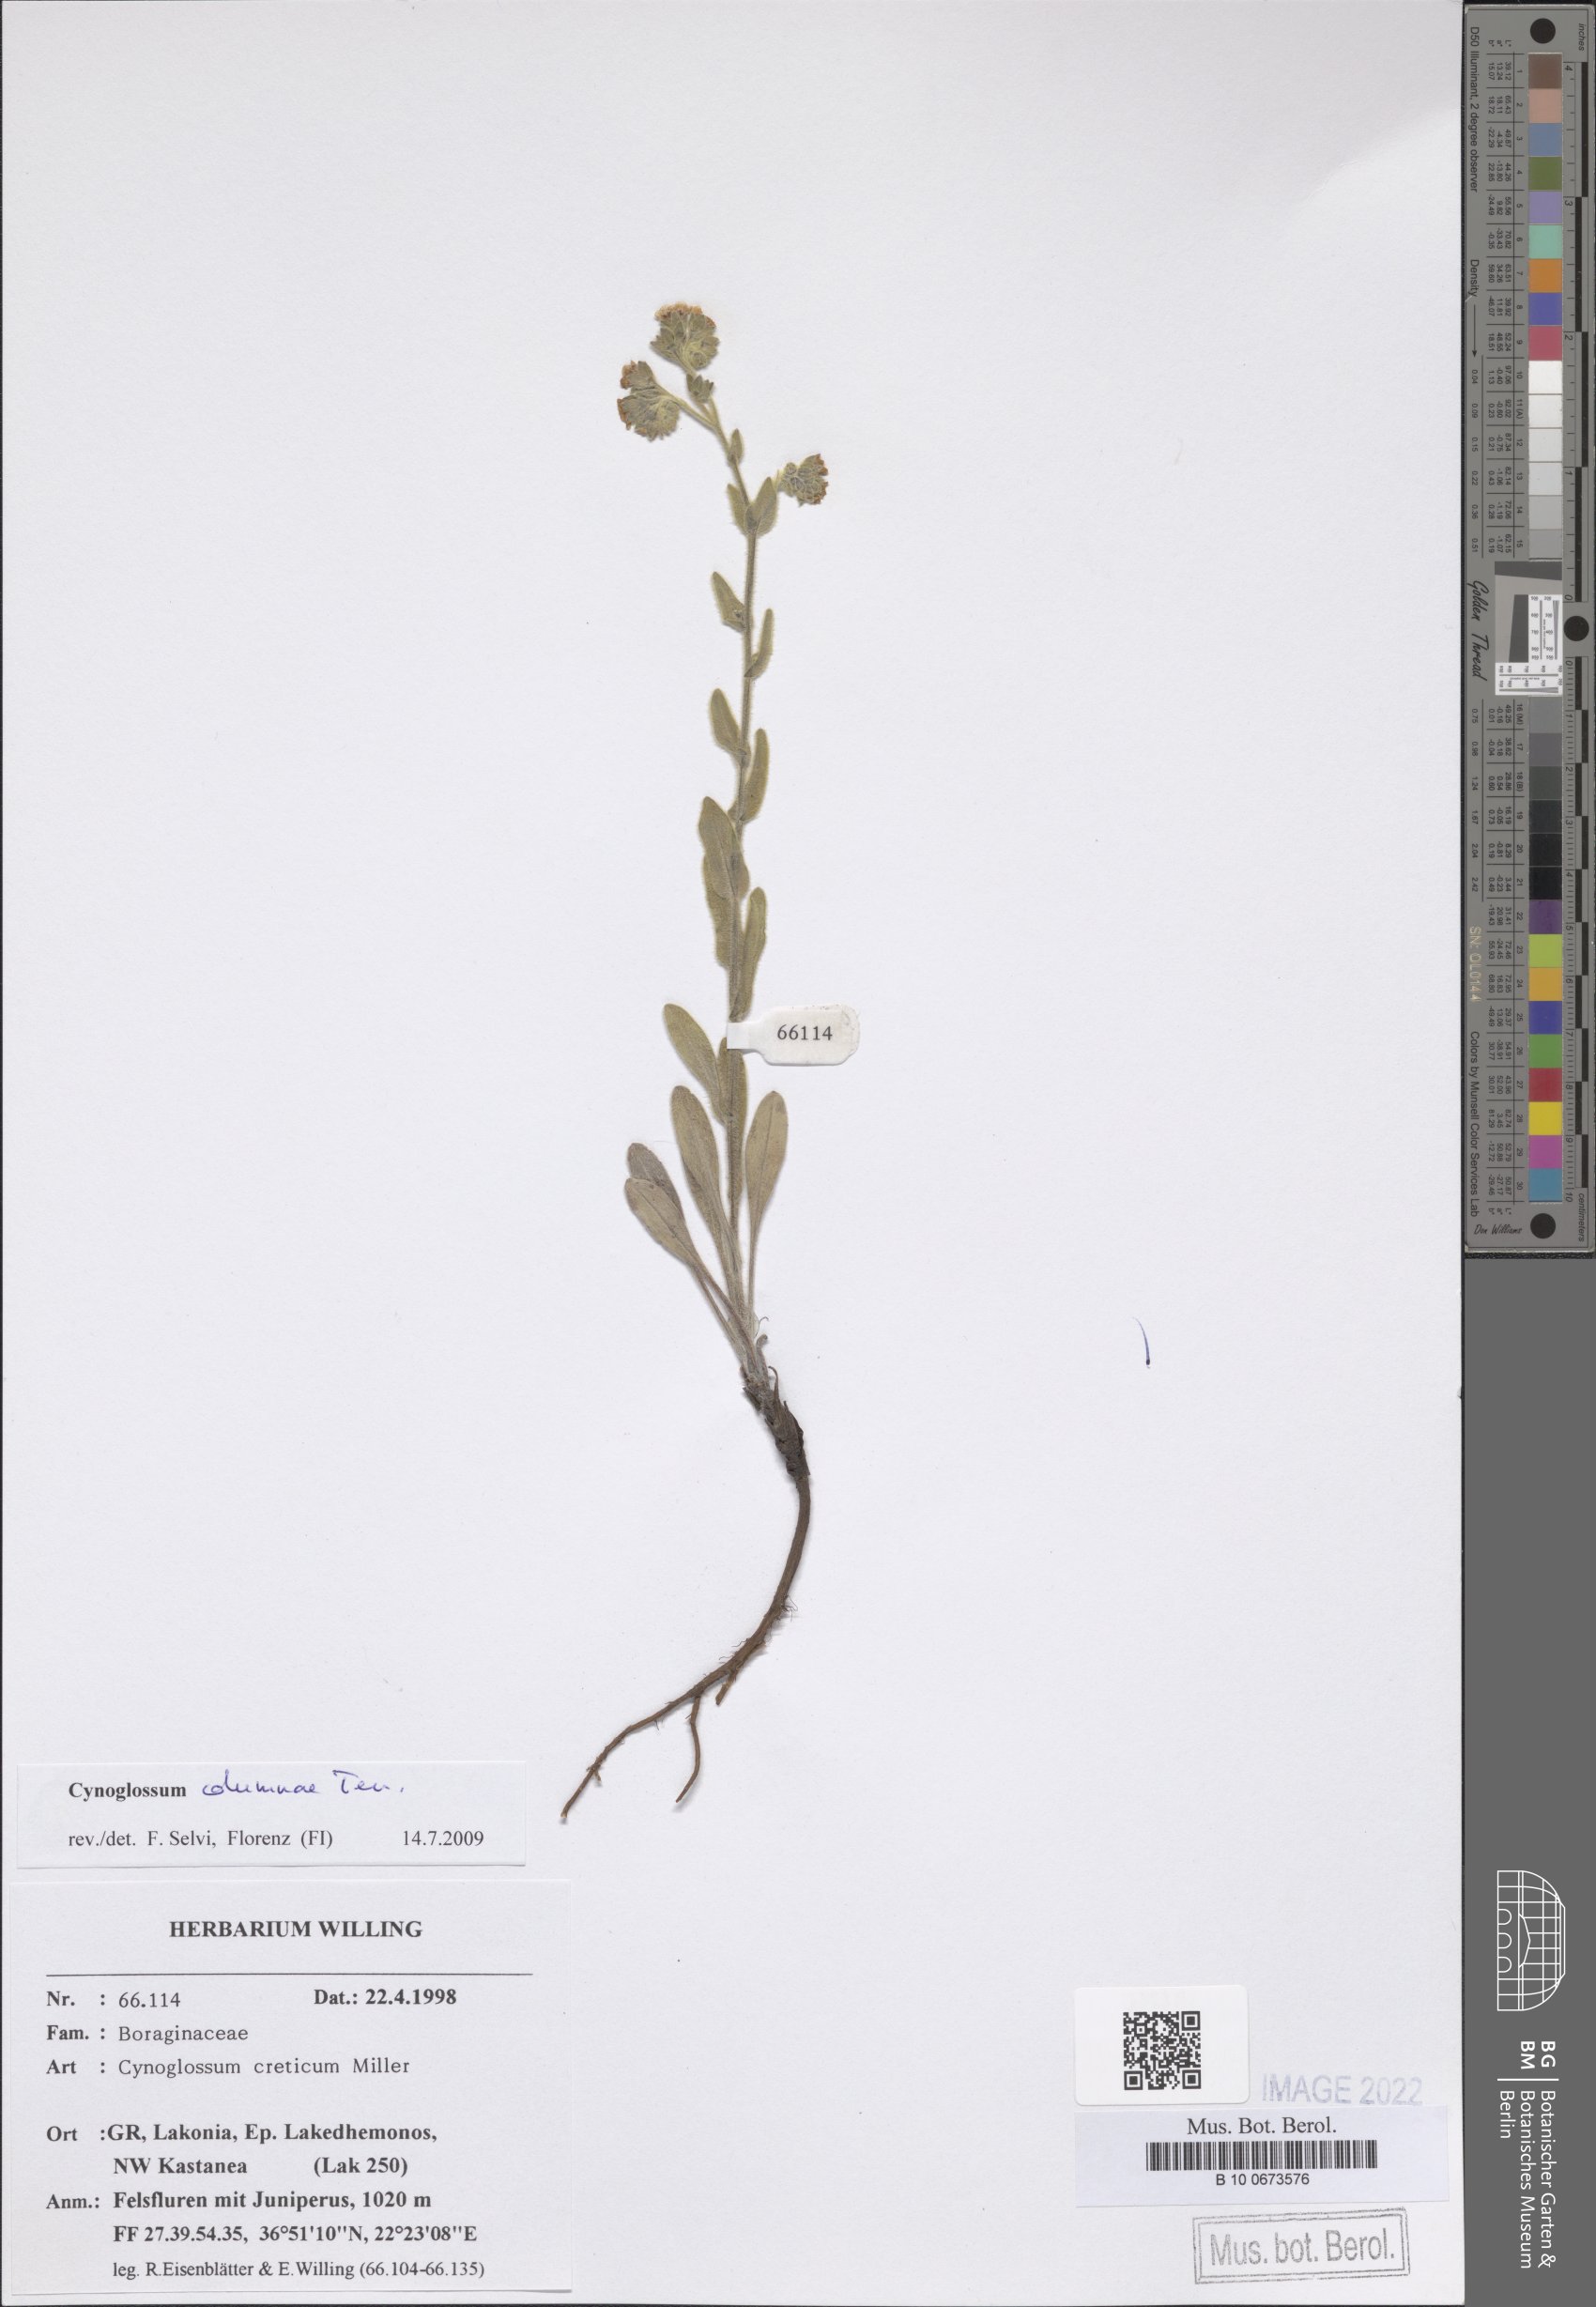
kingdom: Plantae
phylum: Tracheophyta
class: Magnoliopsida
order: Boraginales
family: Boraginaceae
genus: Rindera
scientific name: Rindera columnae
